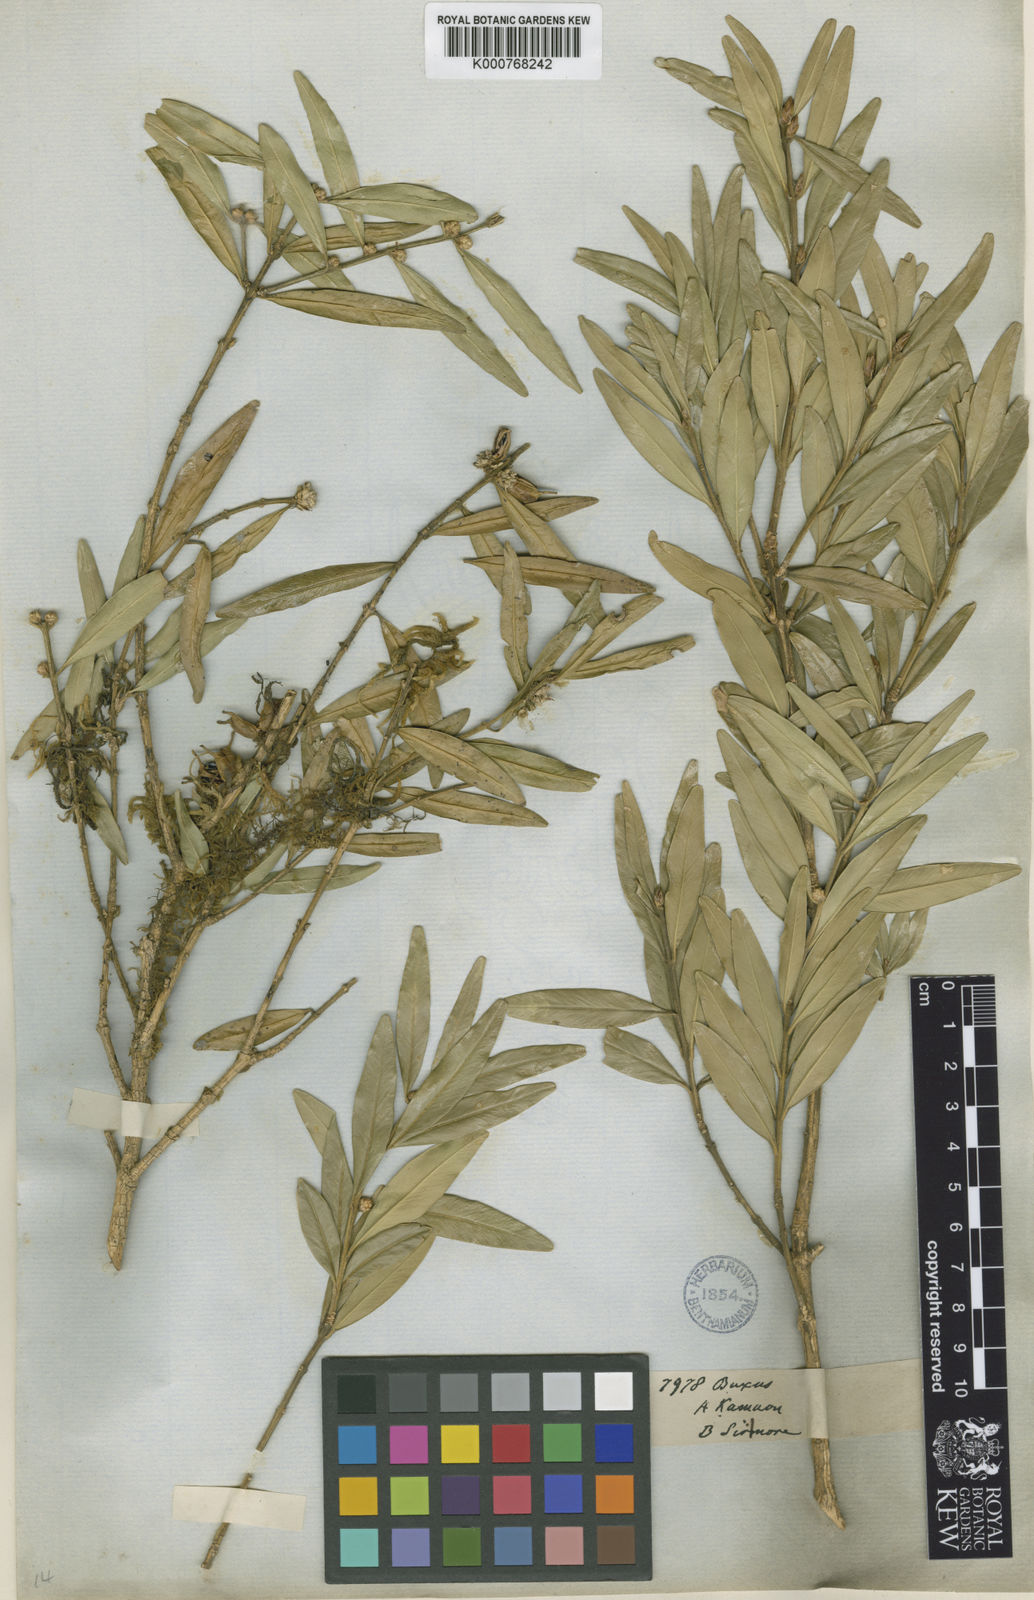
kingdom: Plantae
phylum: Tracheophyta
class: Magnoliopsida
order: Buxales
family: Buxaceae
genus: Buxus
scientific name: Buxus wallichiana
